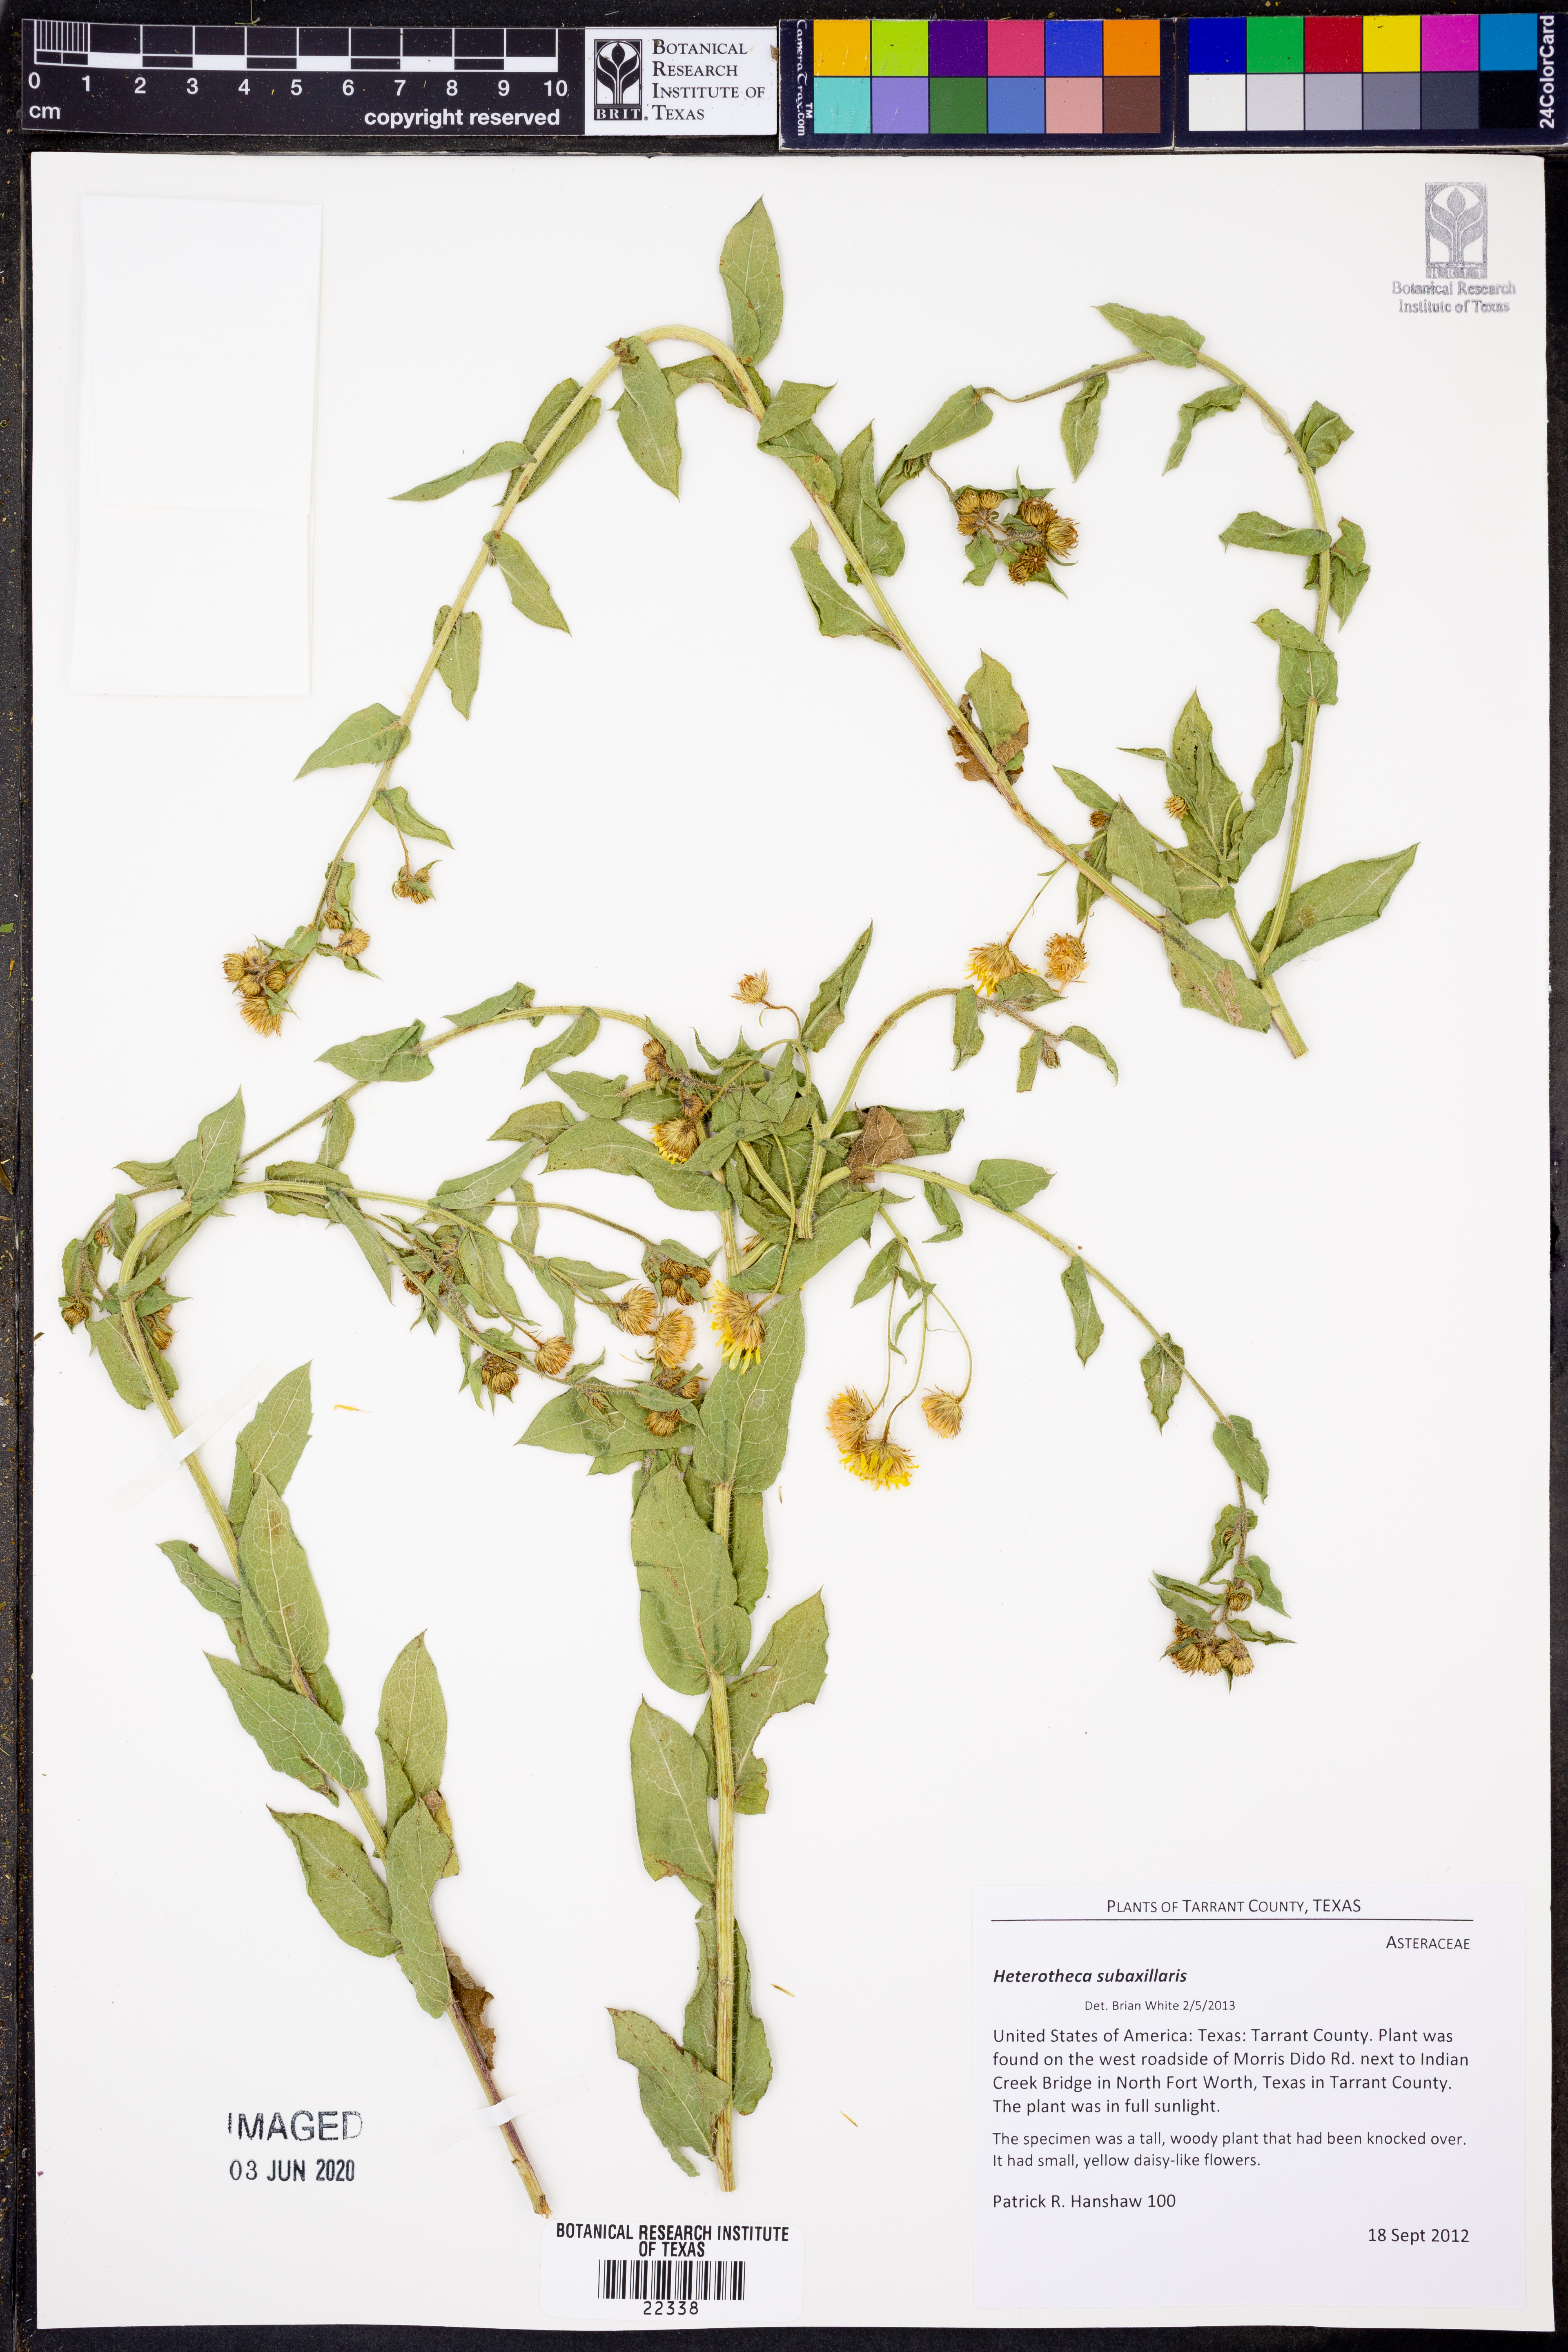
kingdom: Plantae
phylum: Tracheophyta
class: Magnoliopsida
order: Asterales
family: Asteraceae
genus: Heterotheca
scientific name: Heterotheca subaxillaris
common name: Camphorweed
